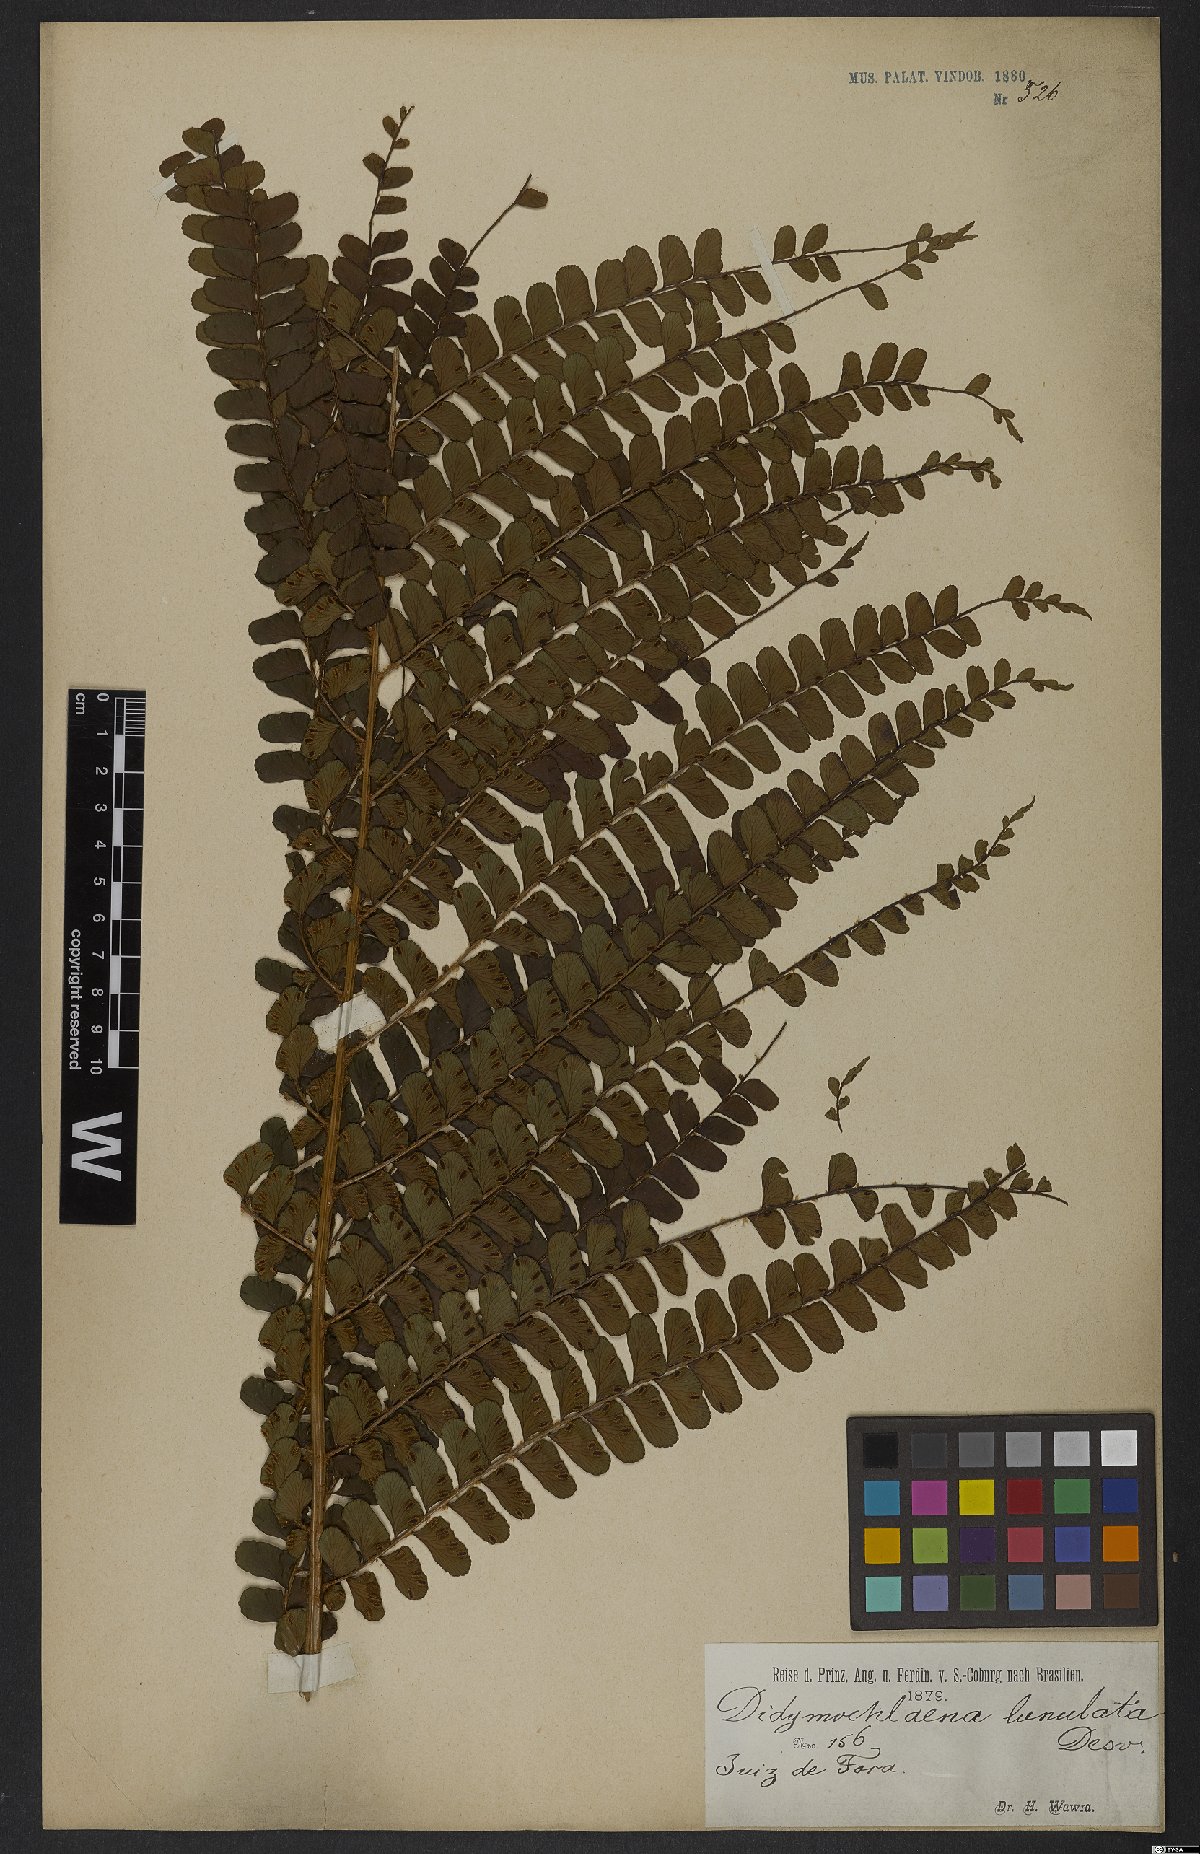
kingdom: Plantae
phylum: Tracheophyta
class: Polypodiopsida
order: Polypodiales
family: Didymochlaenaceae
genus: Didymochlaena
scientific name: Didymochlaena truncatula
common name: Mahogany fern
